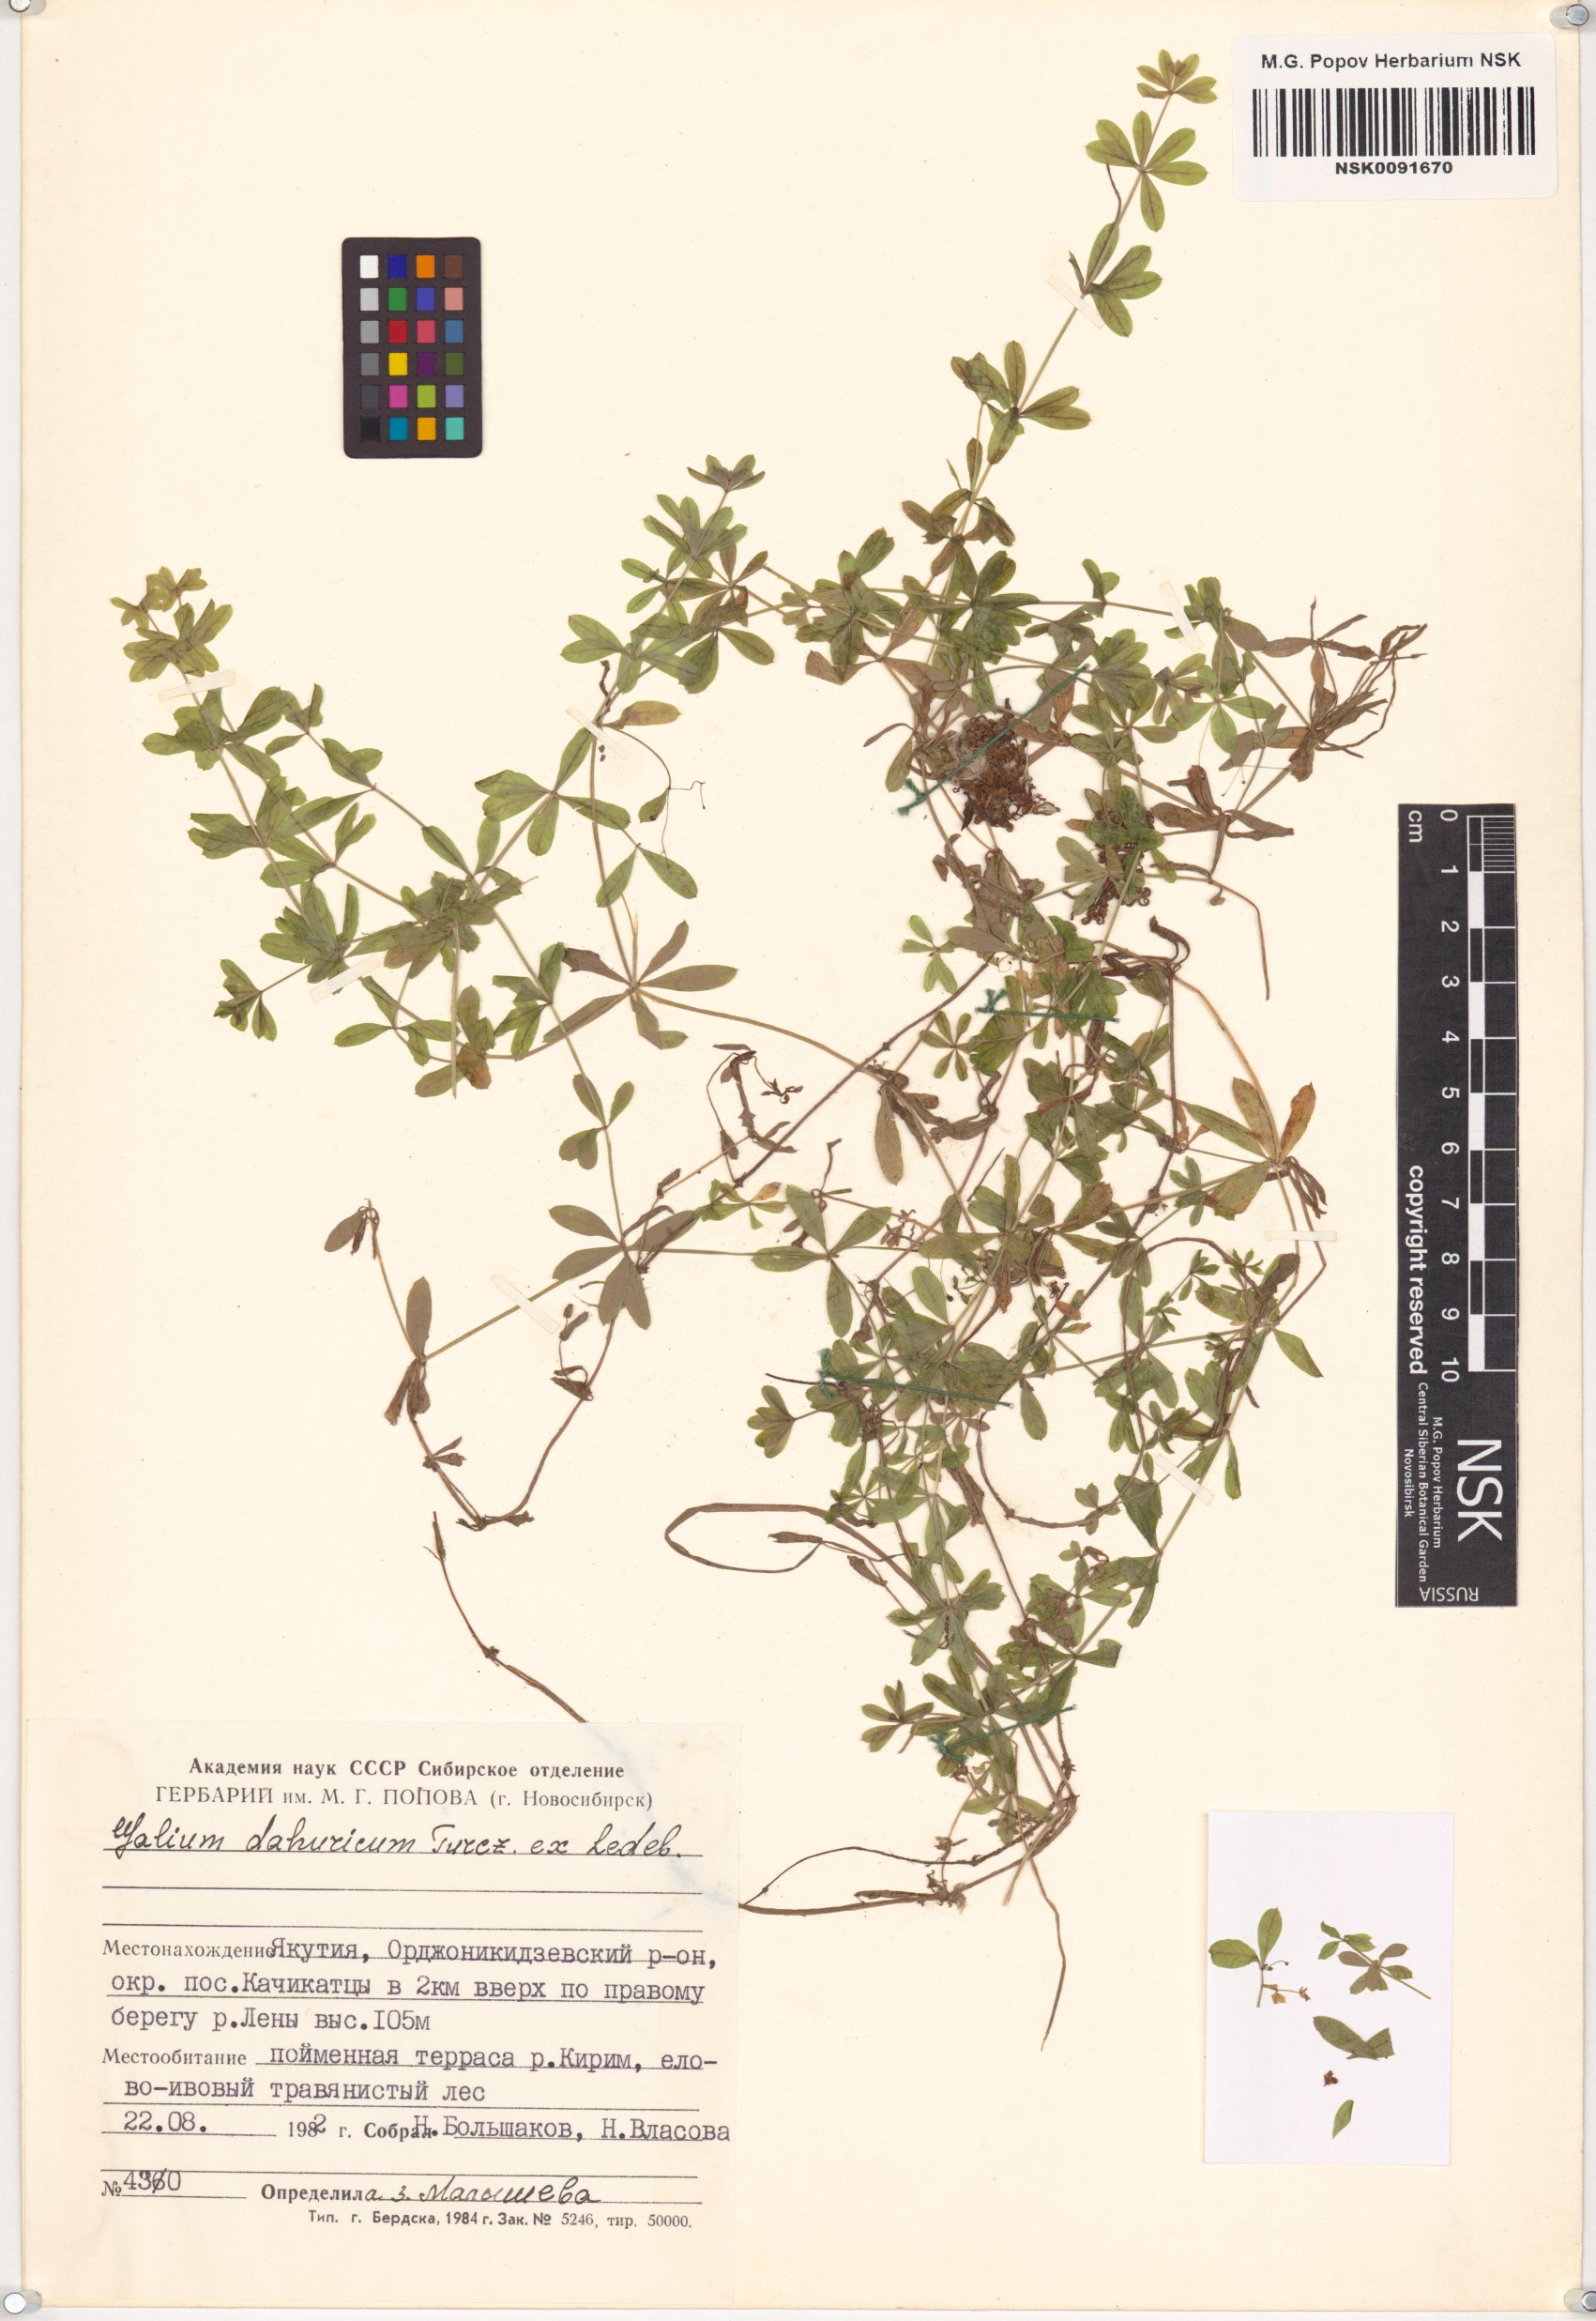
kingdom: Plantae
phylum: Tracheophyta
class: Magnoliopsida
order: Gentianales
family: Rubiaceae
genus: Galium
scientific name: Galium dahuricum
